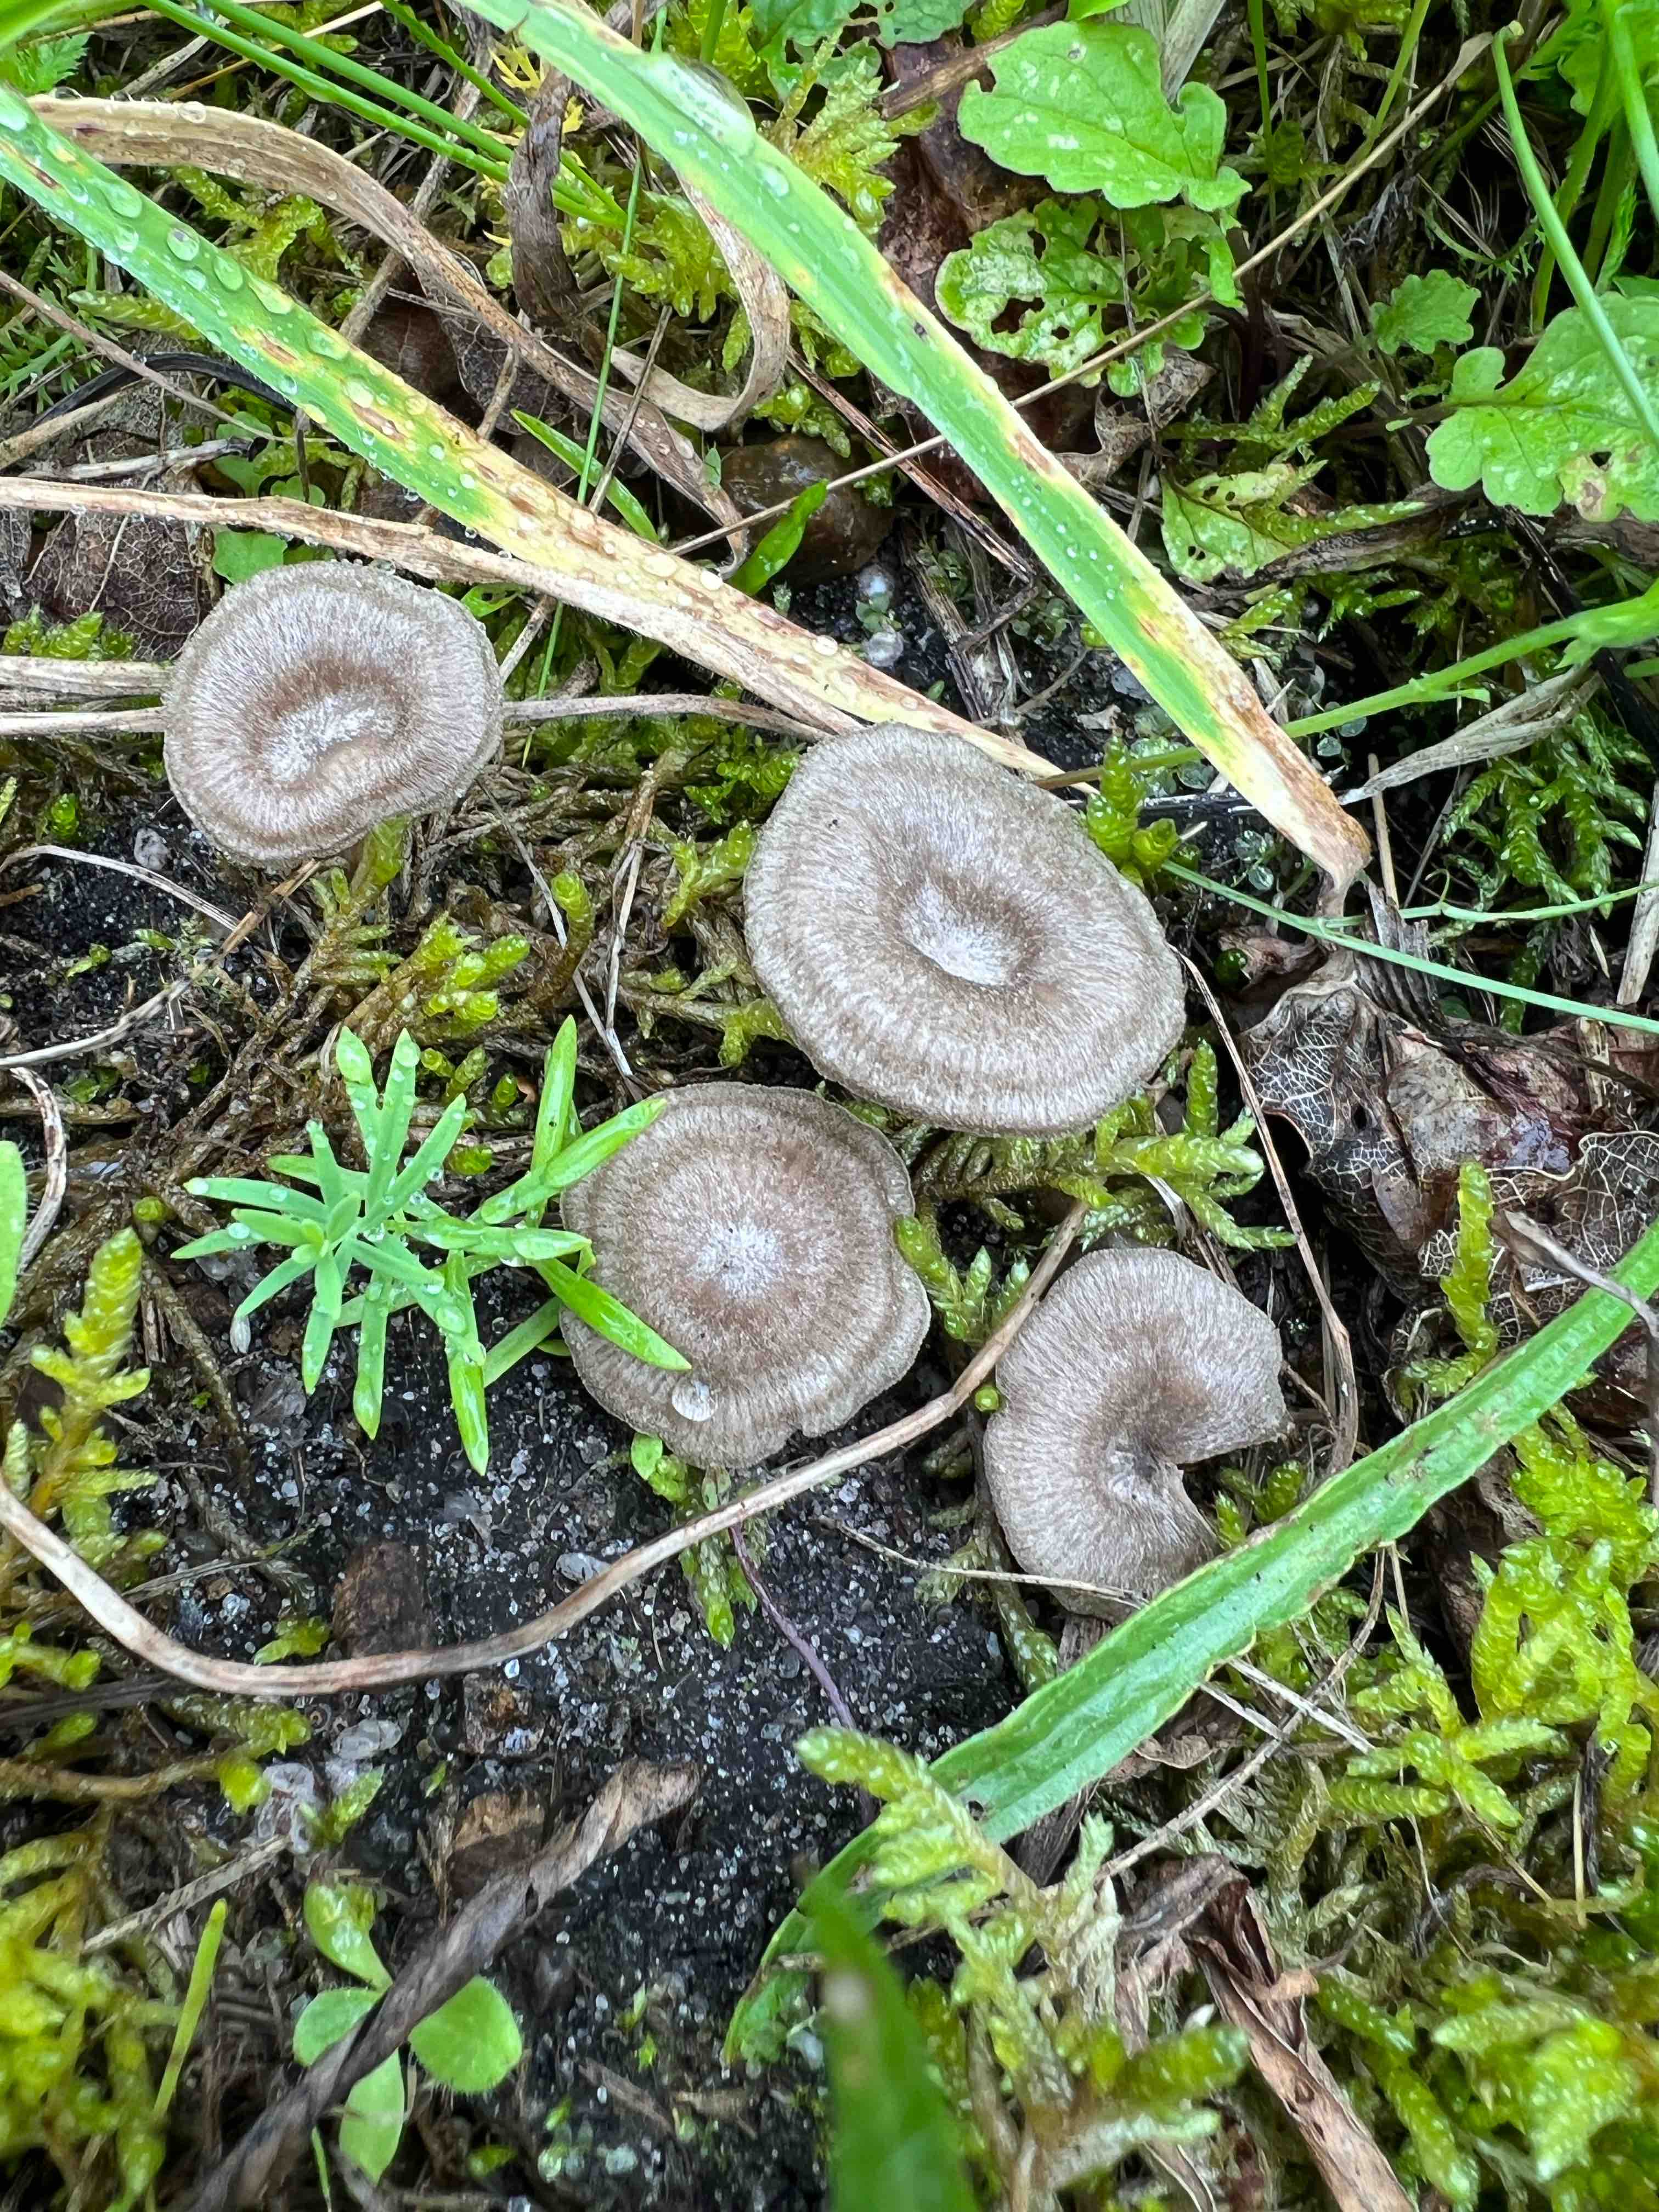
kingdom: Fungi
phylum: Basidiomycota
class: Agaricomycetes
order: Agaricales
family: Entolomataceae
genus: Entoloma
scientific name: Entoloma undatum
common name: bæltet rødblad
